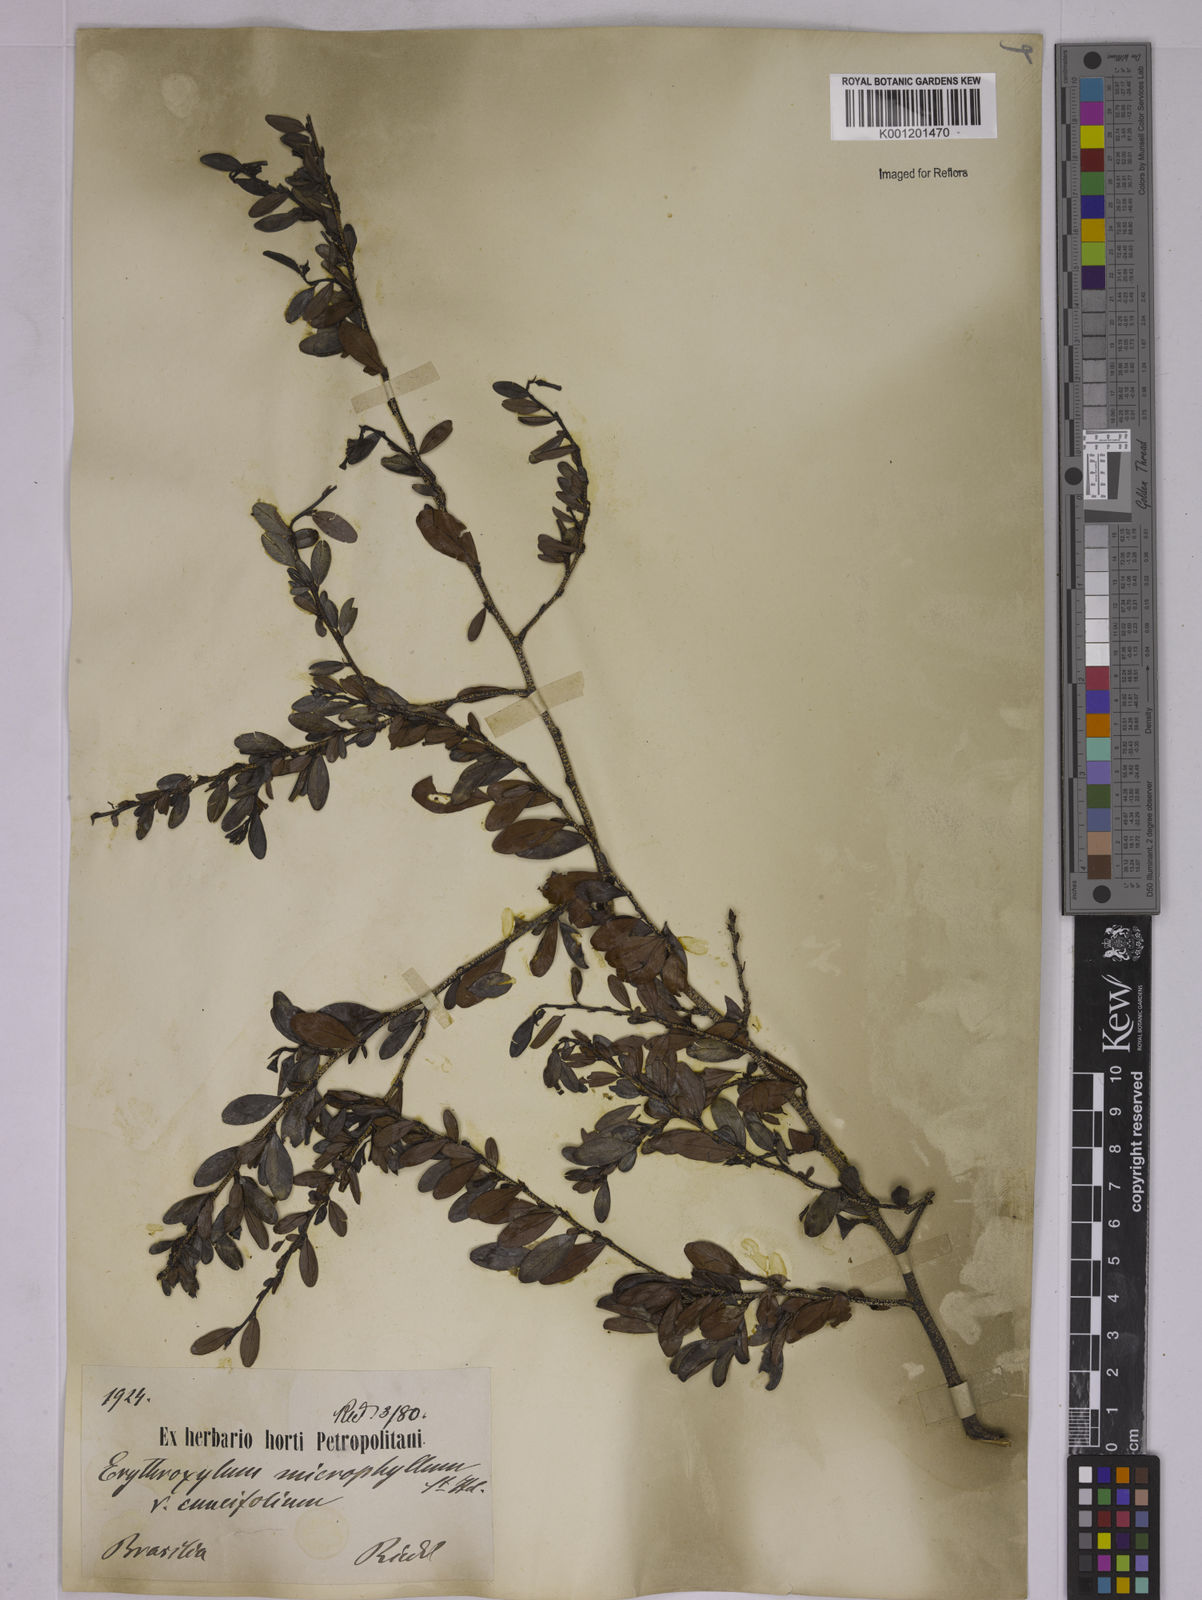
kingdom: Plantae
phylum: Tracheophyta
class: Magnoliopsida
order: Malpighiales
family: Erythroxylaceae
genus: Erythroxylum
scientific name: Erythroxylum cuneifolium
